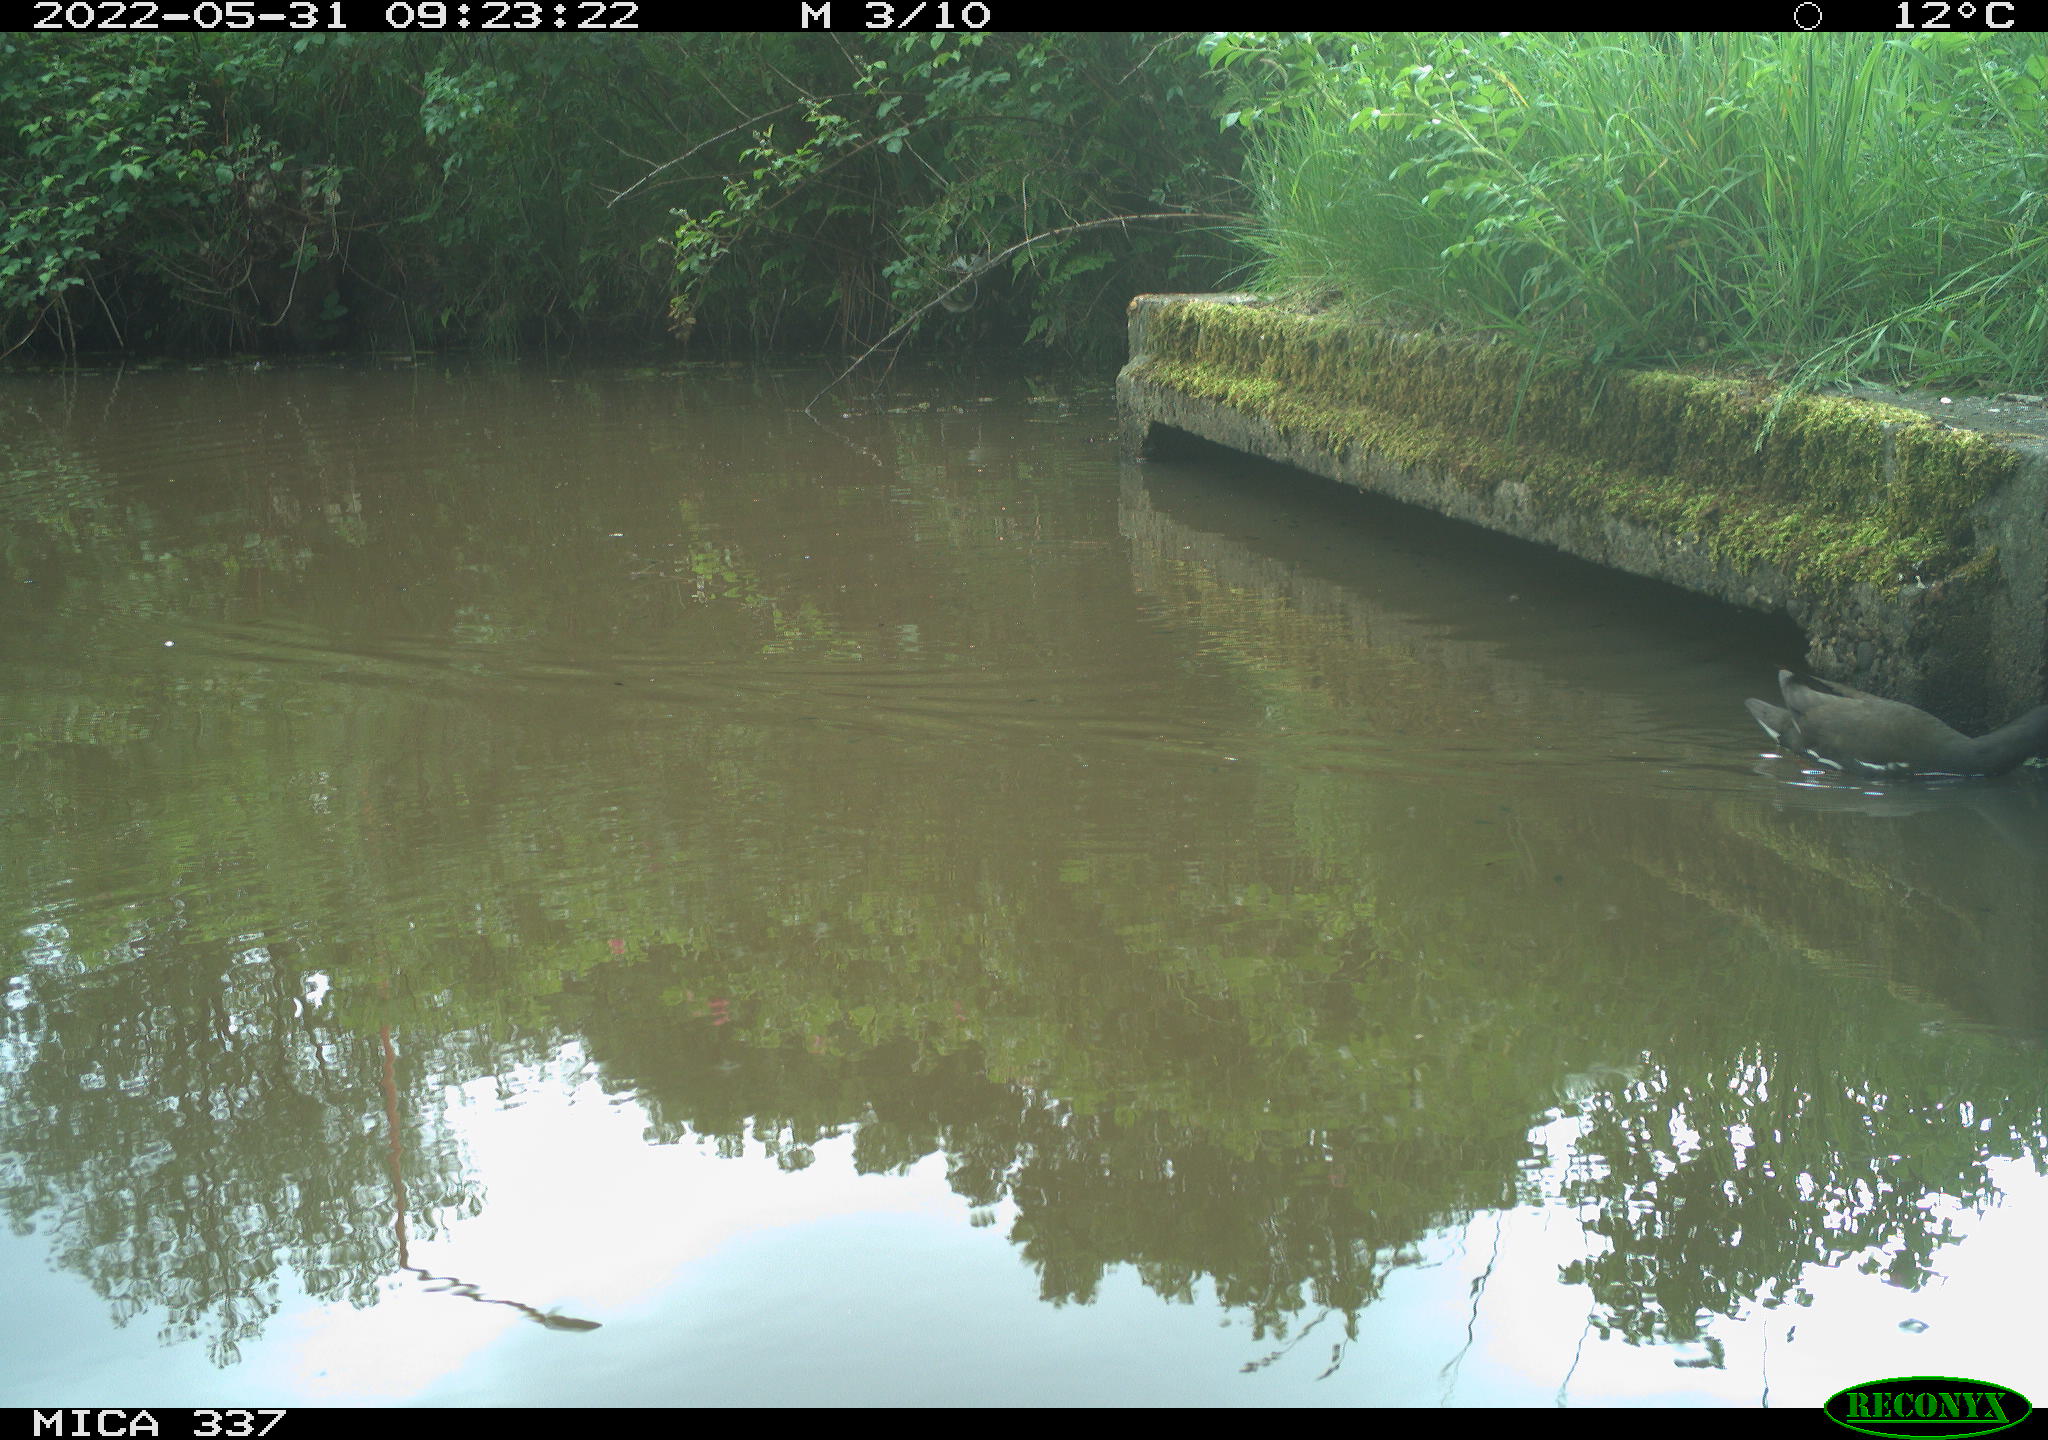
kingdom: Animalia
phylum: Chordata
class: Aves
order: Gruiformes
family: Rallidae
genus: Gallinula
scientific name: Gallinula chloropus
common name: Common moorhen
